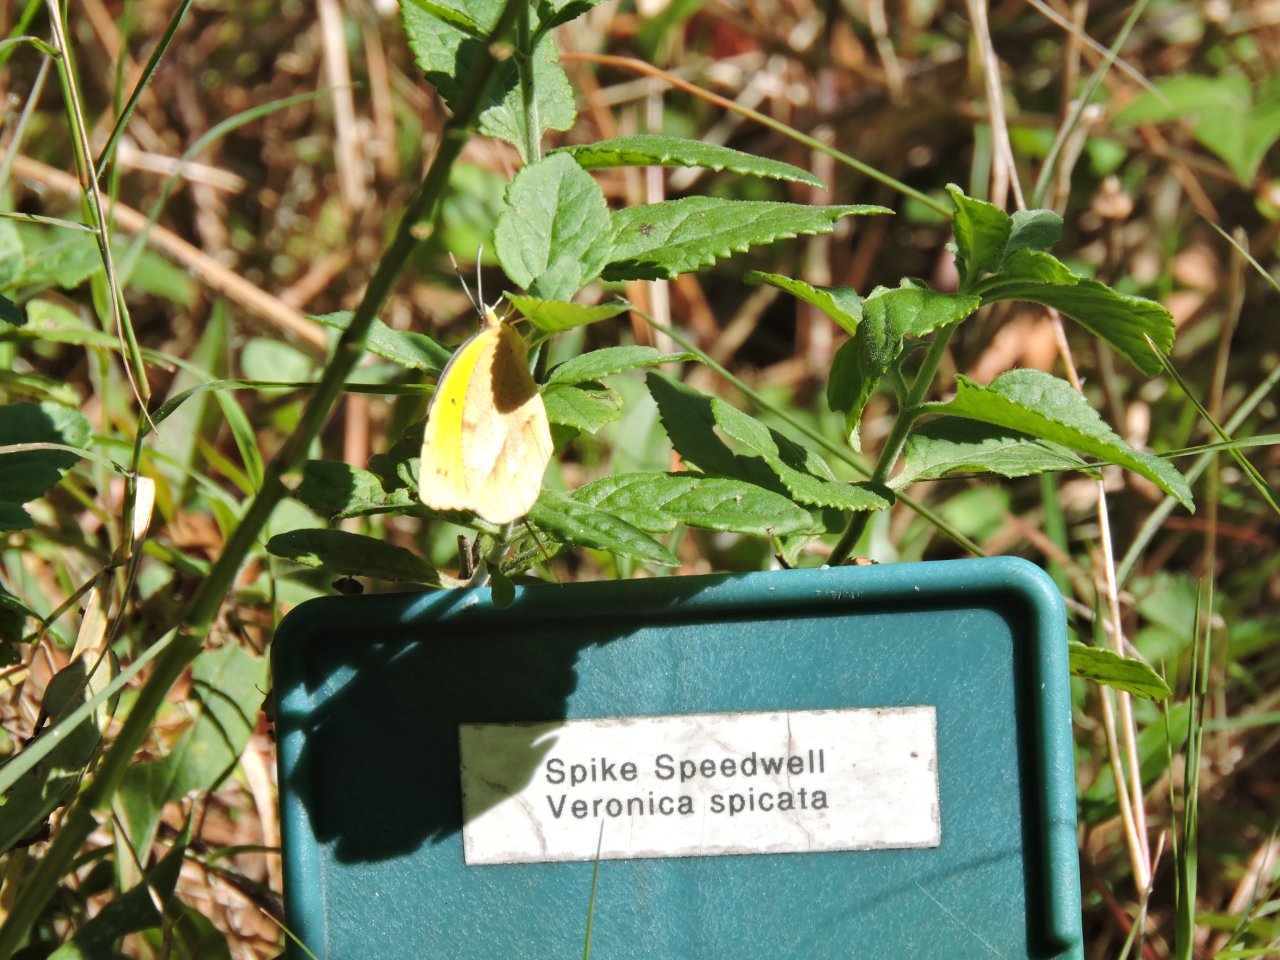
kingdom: Animalia
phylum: Arthropoda
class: Insecta
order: Lepidoptera
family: Pieridae
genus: Abaeis
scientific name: Abaeis nicippe
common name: Sleepy Orange
